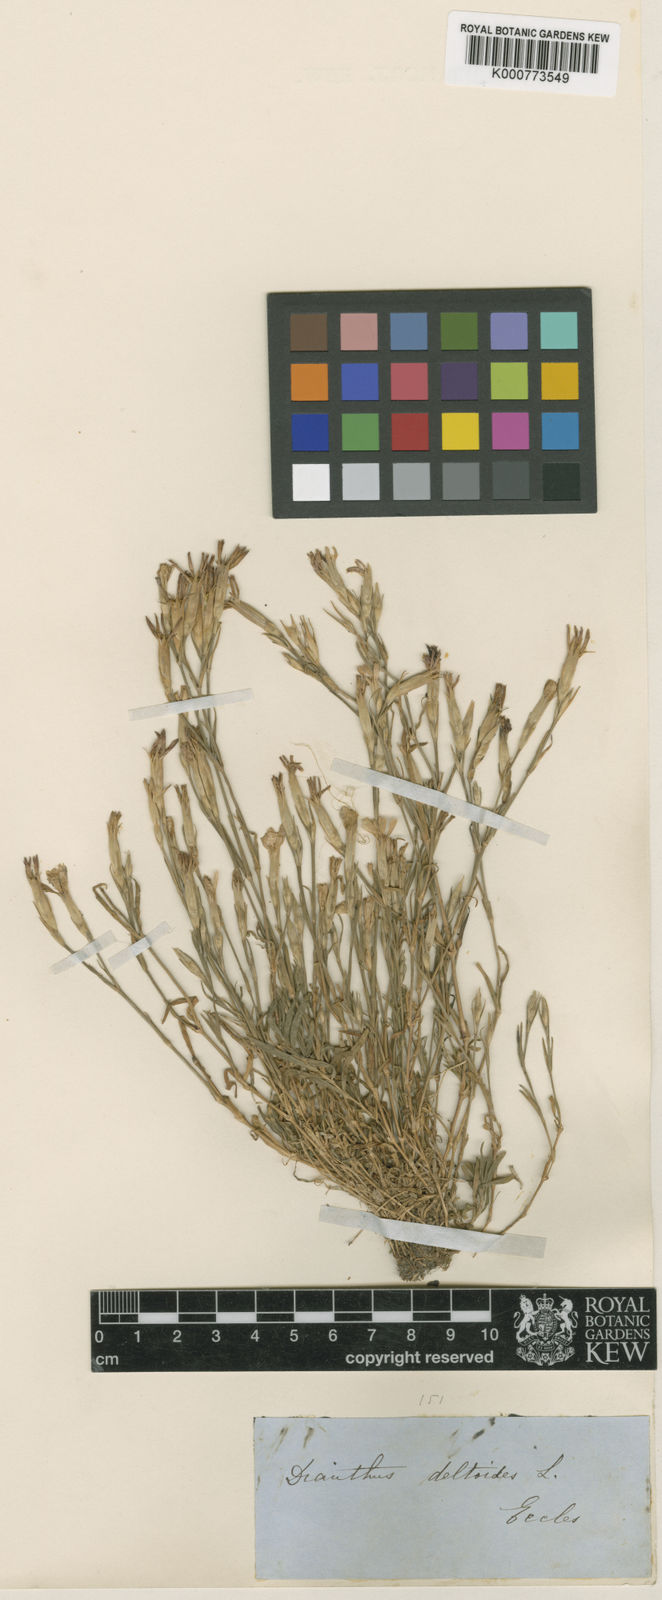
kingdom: Plantae
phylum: Tracheophyta
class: Magnoliopsida
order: Caryophyllales
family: Caryophyllaceae
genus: Dianthus
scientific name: Dianthus deltoides
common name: Maiden pink
